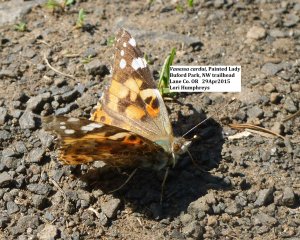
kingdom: Animalia
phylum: Arthropoda
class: Insecta
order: Lepidoptera
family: Nymphalidae
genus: Vanessa
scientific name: Vanessa cardui
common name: Painted Lady
